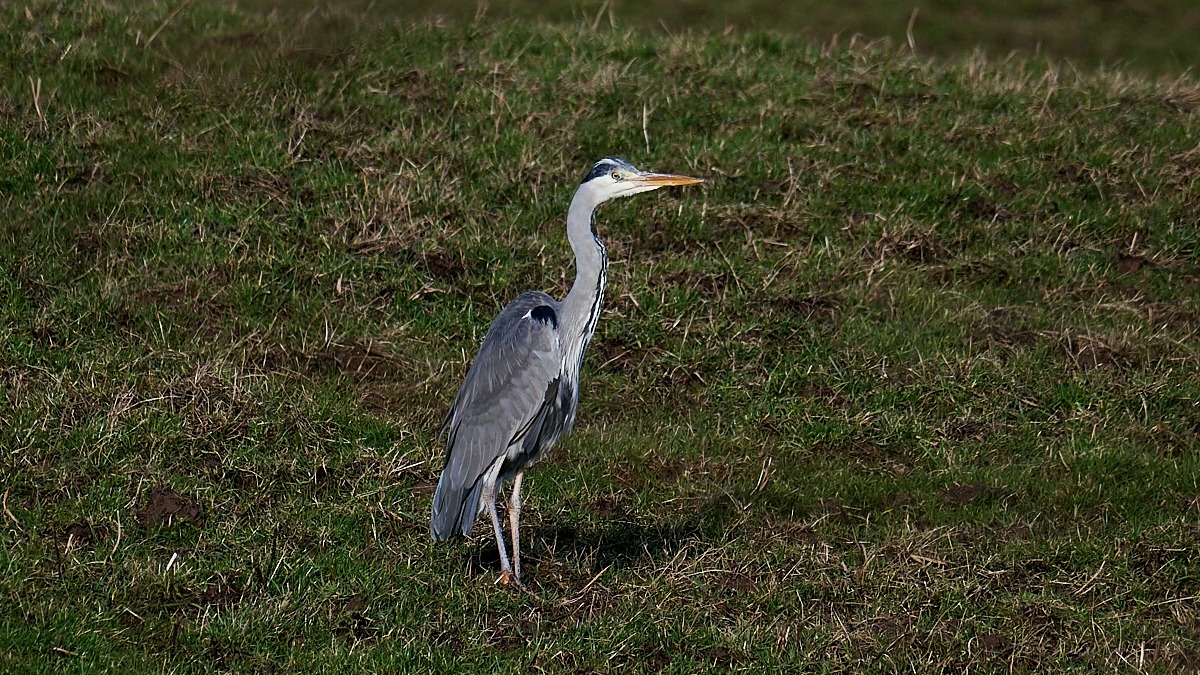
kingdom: Animalia
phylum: Chordata
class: Aves
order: Pelecaniformes
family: Ardeidae
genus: Ardea
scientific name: Ardea cinerea
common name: Fiskehejre
